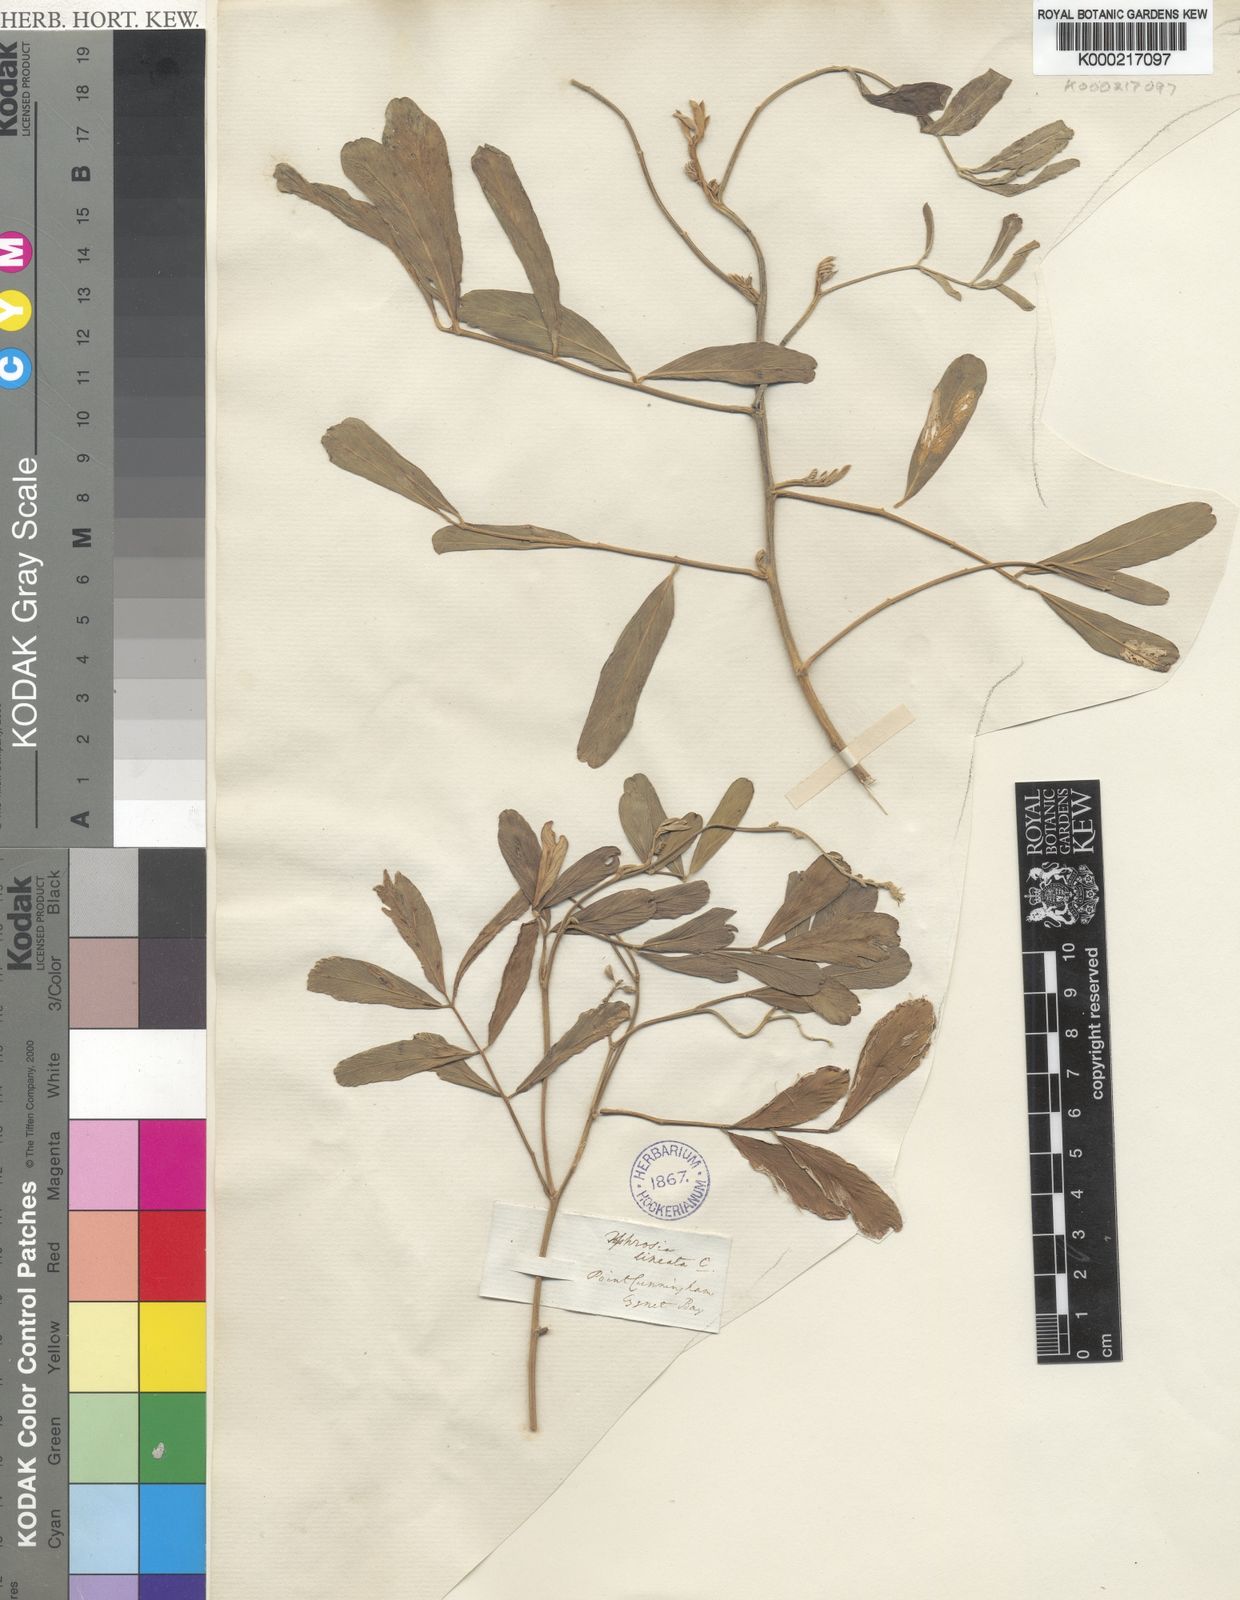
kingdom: Plantae
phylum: Tracheophyta
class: Magnoliopsida
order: Fabales
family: Fabaceae
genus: Tephrosia
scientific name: Tephrosia purpurea
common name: Fishpoison
